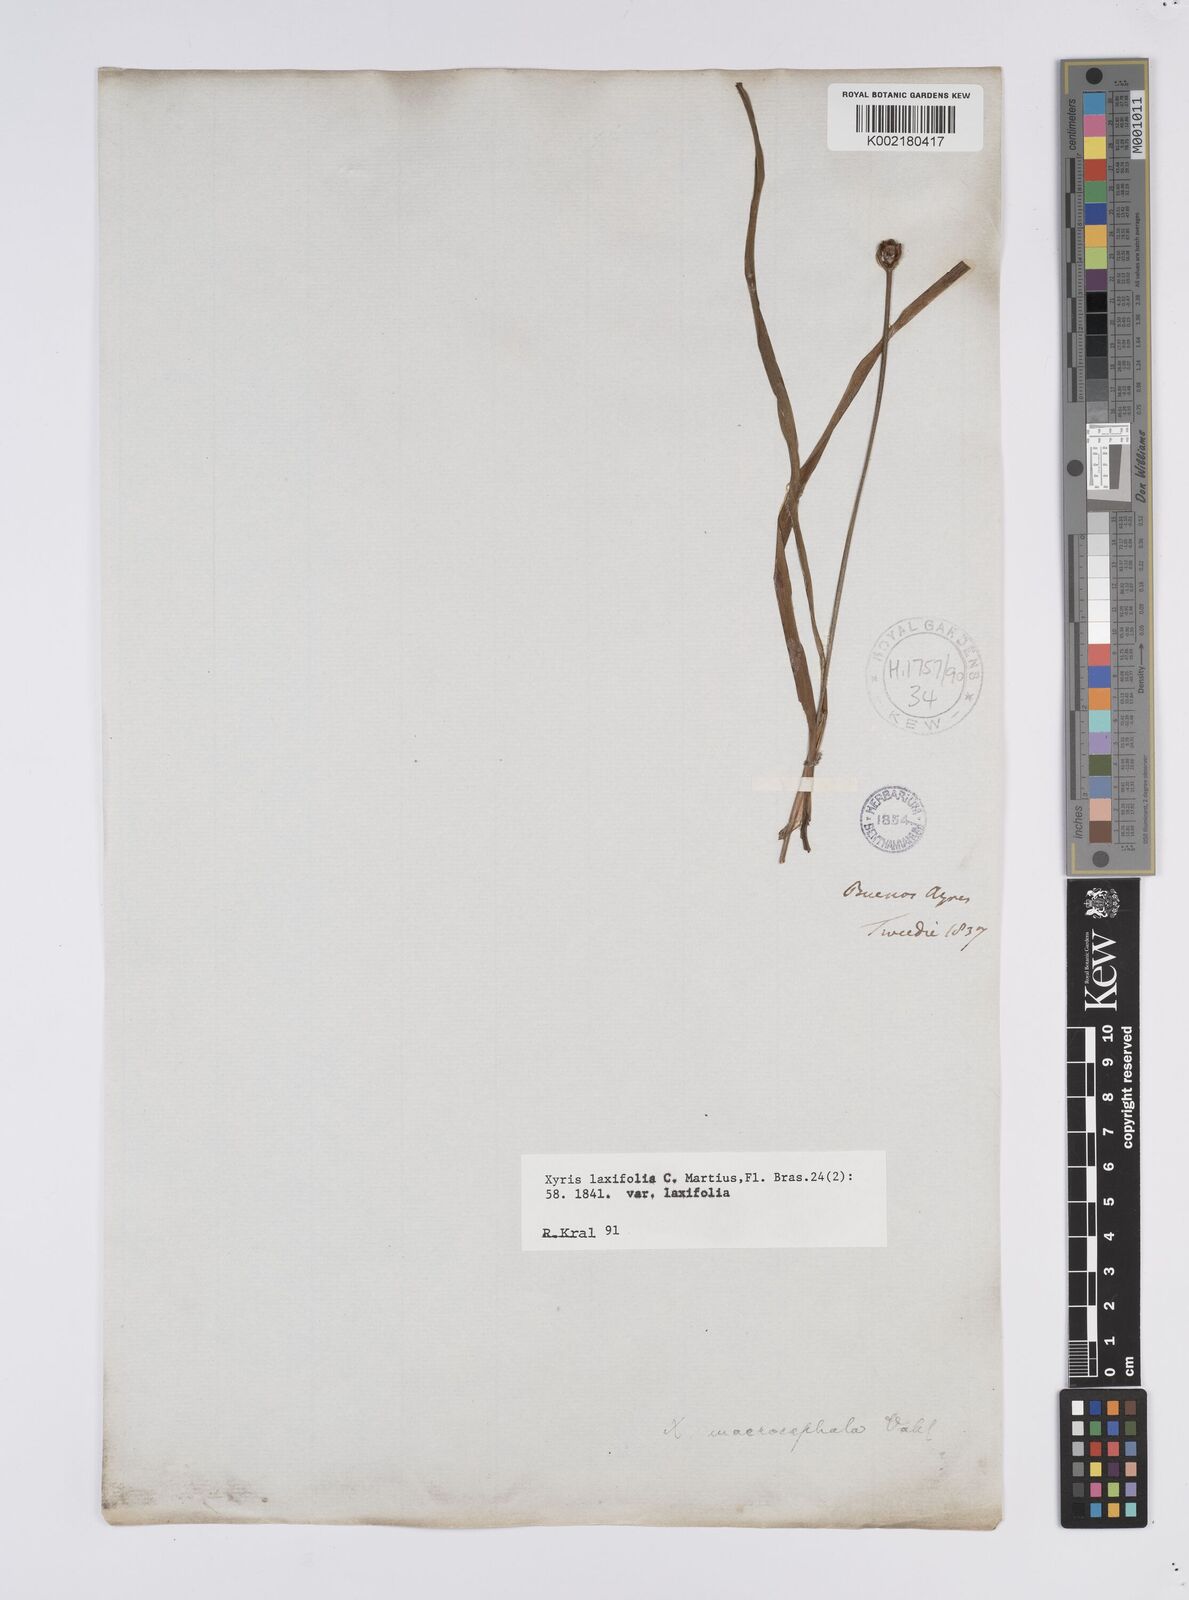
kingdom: Plantae
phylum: Tracheophyta
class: Liliopsida
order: Poales
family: Xyridaceae
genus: Xyris
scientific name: Xyris laxifolia
